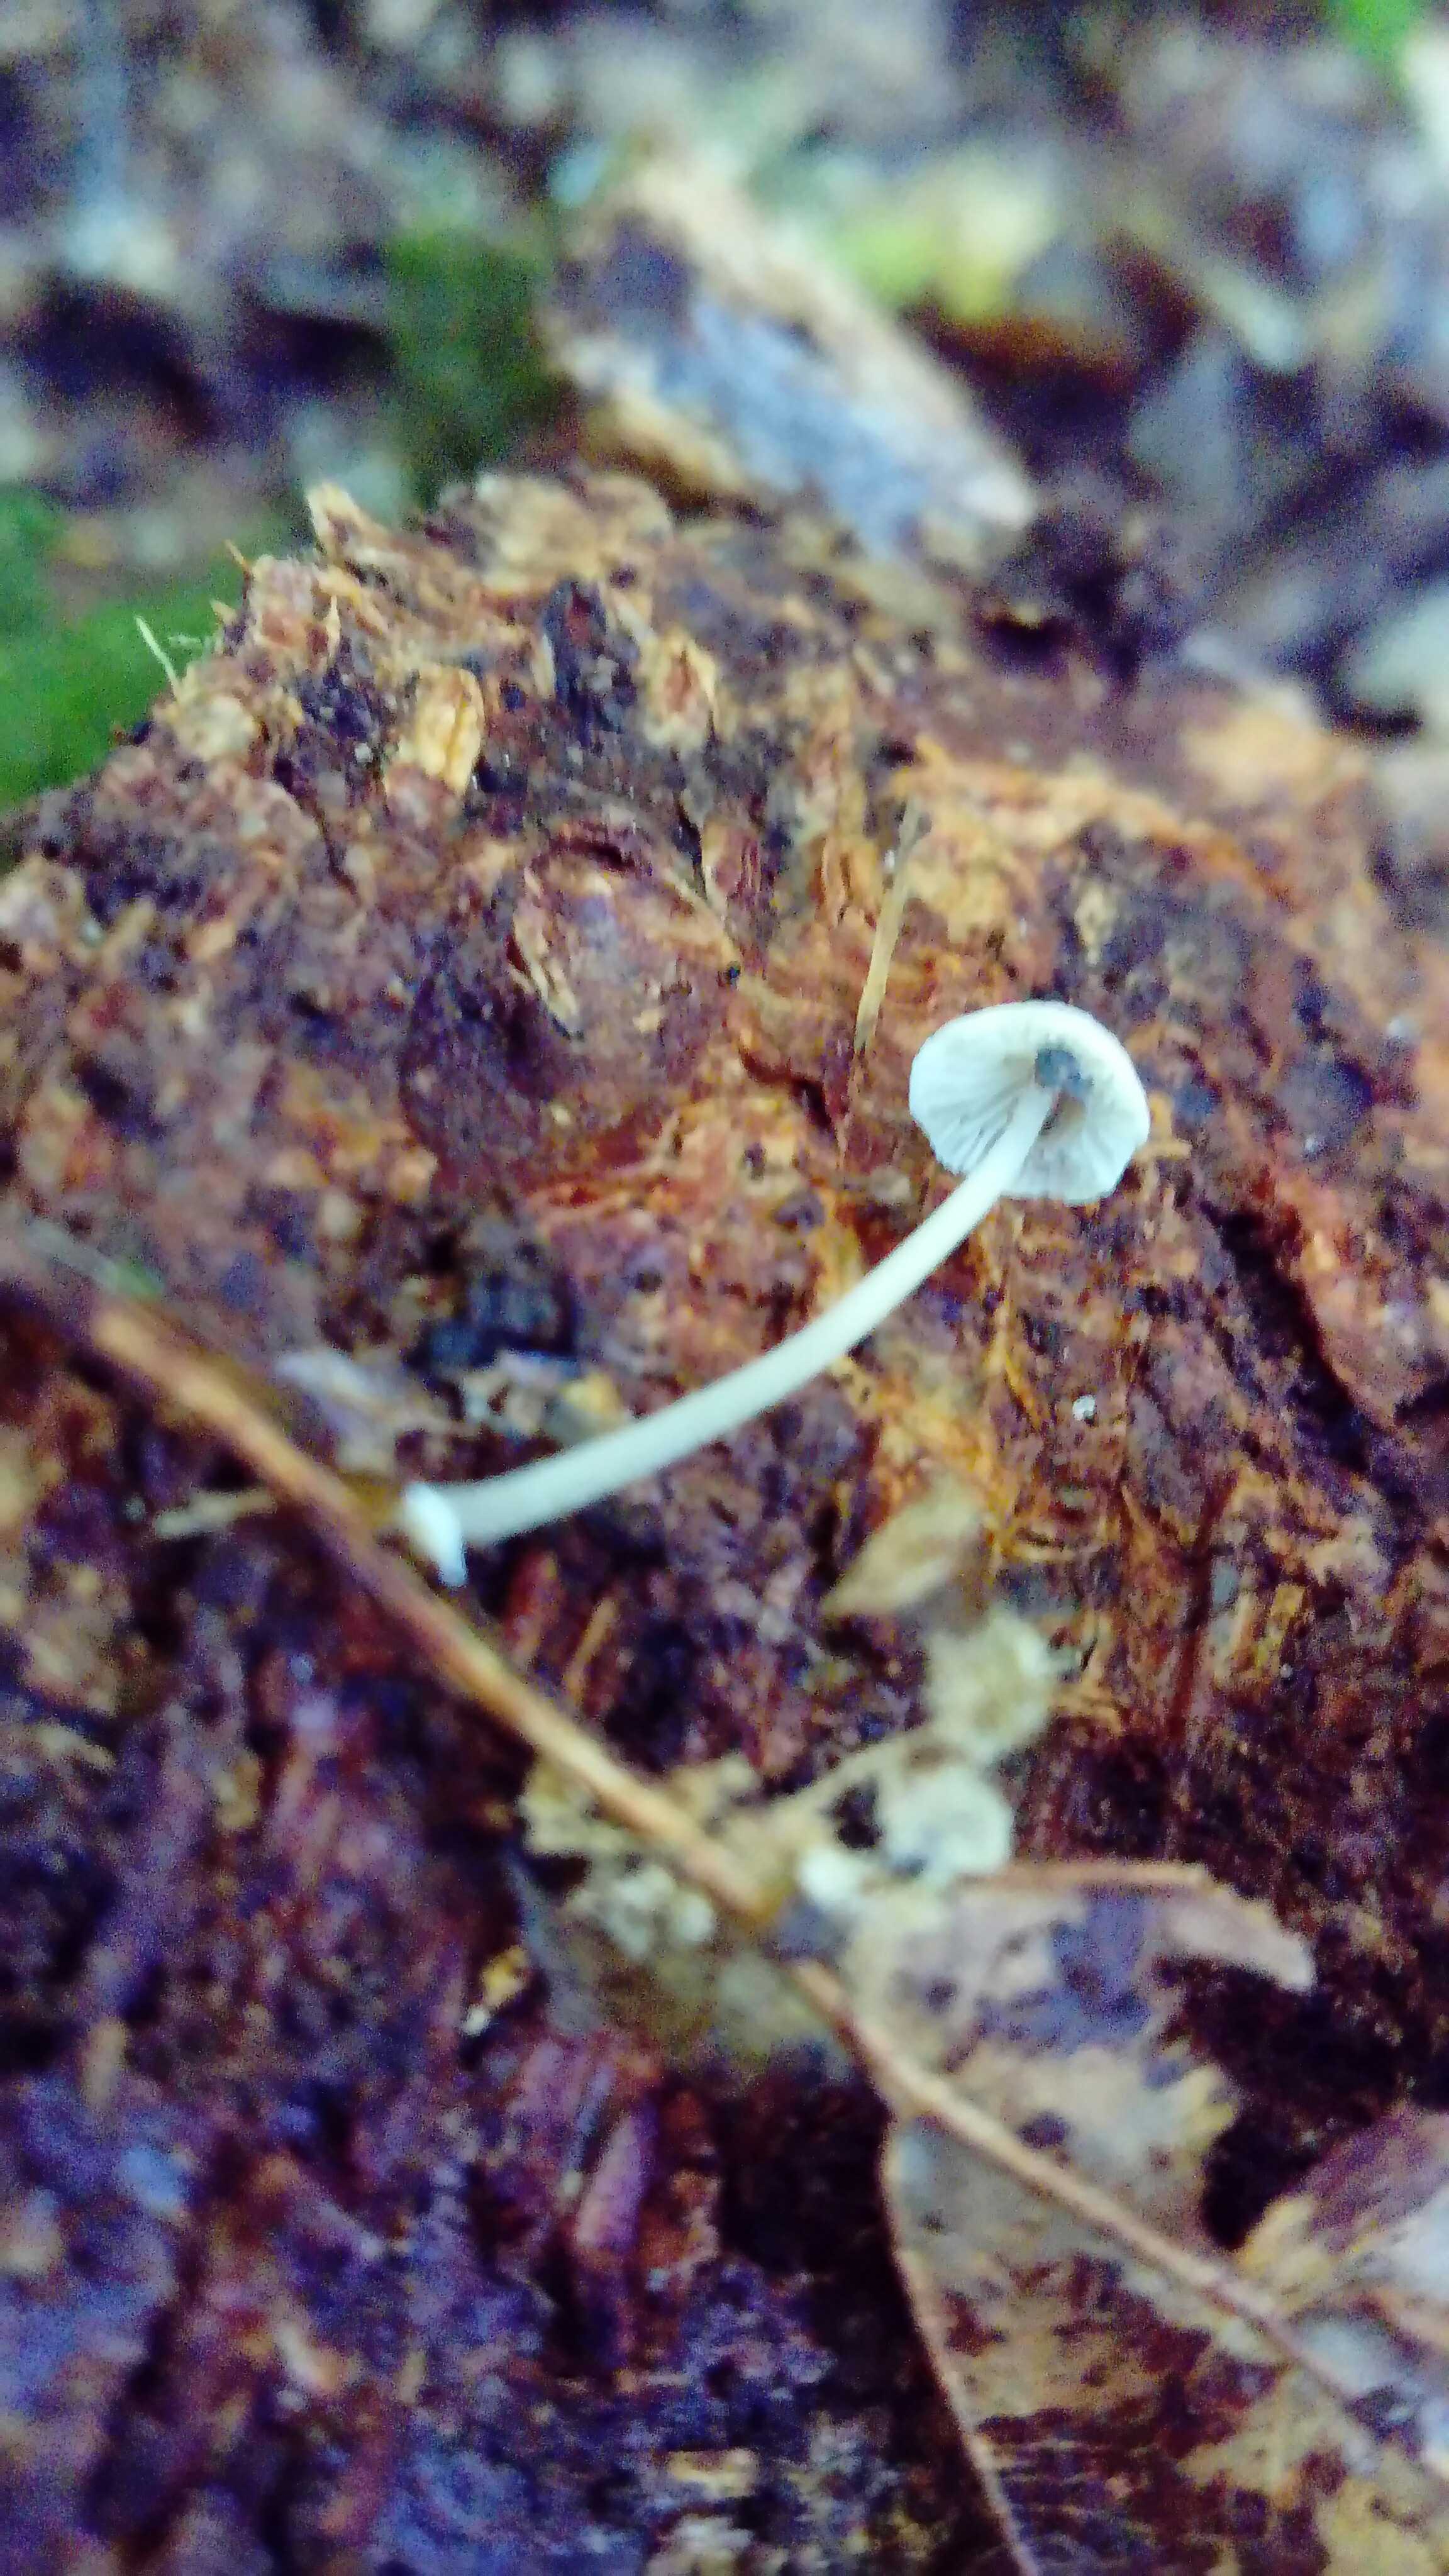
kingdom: Fungi
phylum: Basidiomycota
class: Agaricomycetes
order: Agaricales
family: Mycenaceae
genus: Mycena
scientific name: Mycena stylobates
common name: fureskivet huesvamp
